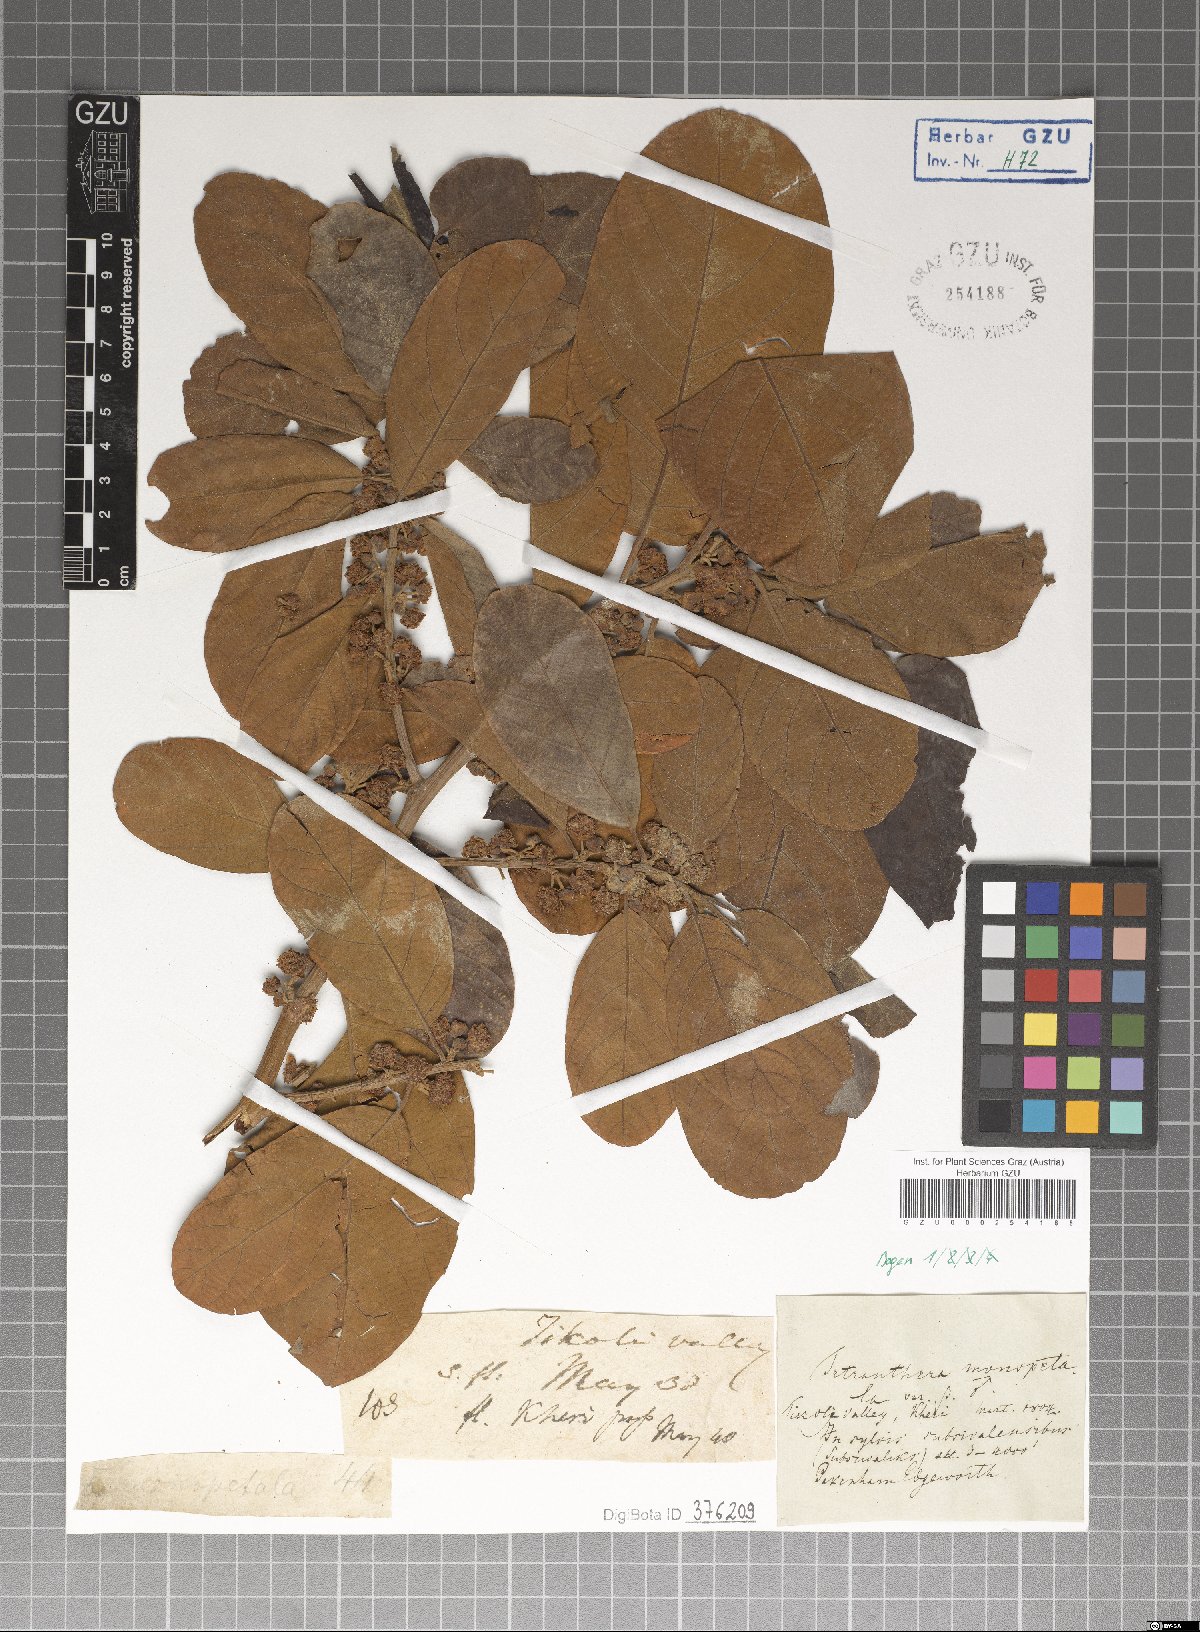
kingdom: Plantae
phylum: Tracheophyta
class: Magnoliopsida
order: Laurales
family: Lauraceae
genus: Litsea
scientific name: Litsea monopetala
